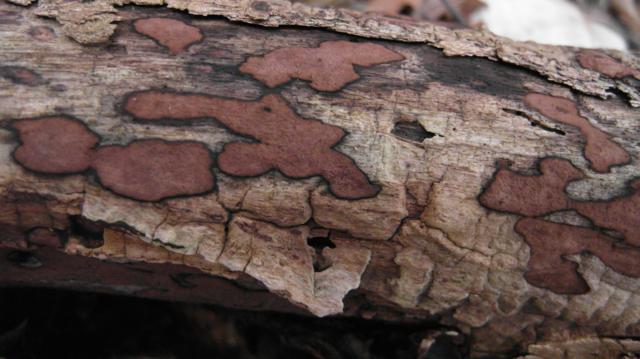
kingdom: Fungi
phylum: Ascomycota
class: Sordariomycetes
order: Xylariales
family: Hypoxylaceae
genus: Hypoxylon
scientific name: Hypoxylon petriniae
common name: nedsænket kulbær
